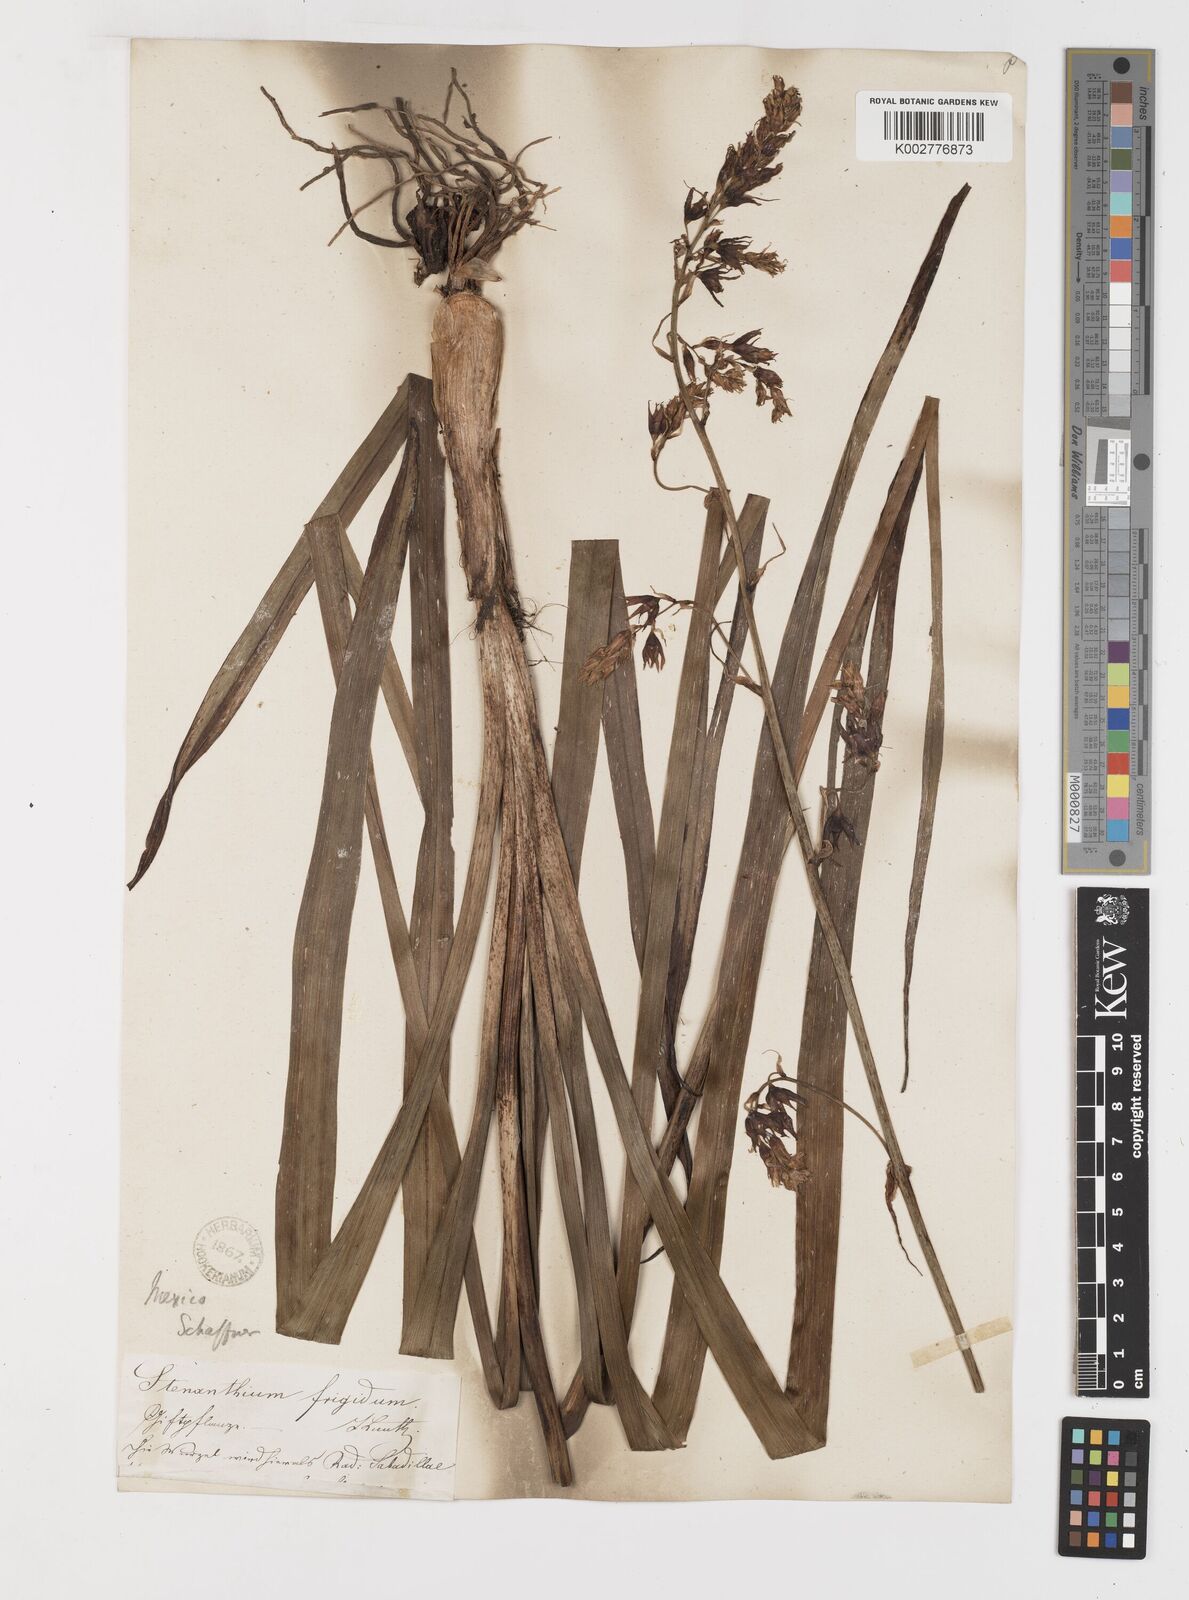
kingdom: Plantae
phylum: Tracheophyta
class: Liliopsida
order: Liliales
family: Melanthiaceae
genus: Anticlea
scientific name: Anticlea frigida
